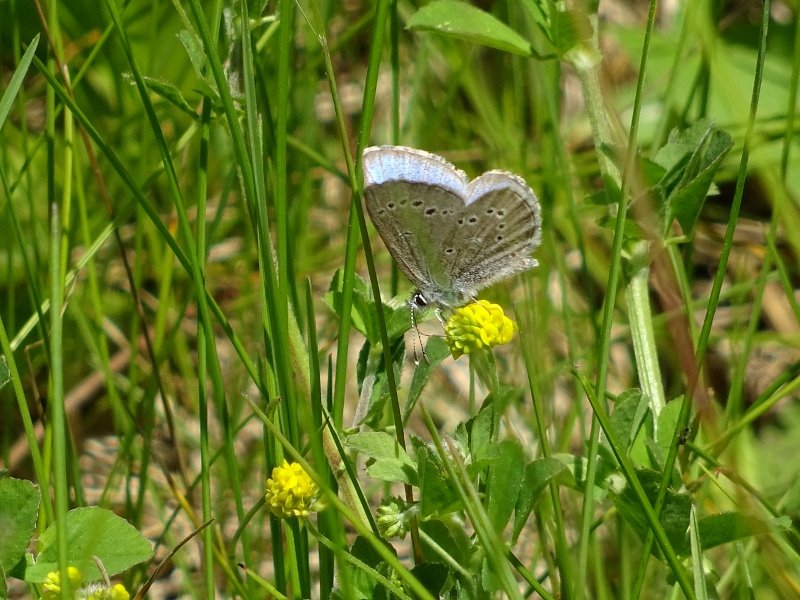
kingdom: Animalia
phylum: Arthropoda
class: Insecta
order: Lepidoptera
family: Lycaenidae
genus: Glaucopsyche
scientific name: Glaucopsyche lygdamus
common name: Silvery Blue
